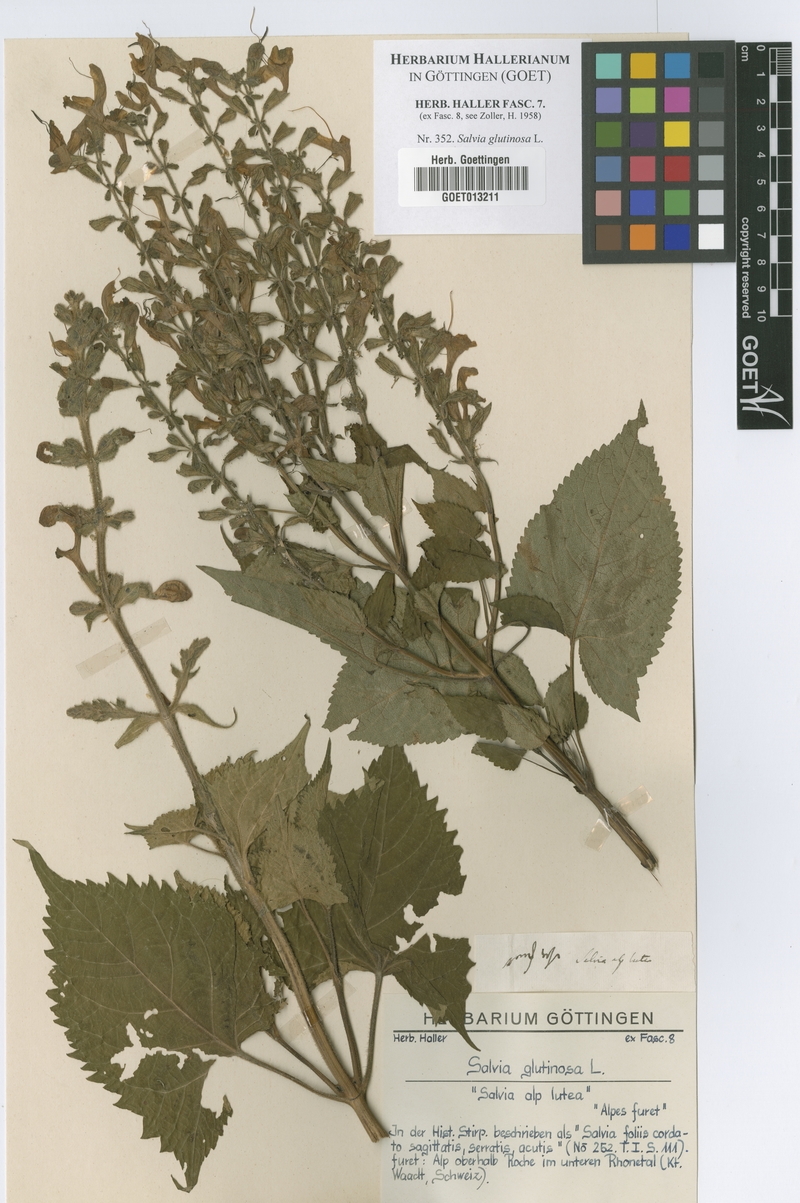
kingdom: Plantae
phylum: Tracheophyta
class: Magnoliopsida
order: Lamiales
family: Lamiaceae
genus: Salvia
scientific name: Salvia glutinosa
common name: Sticky clary
